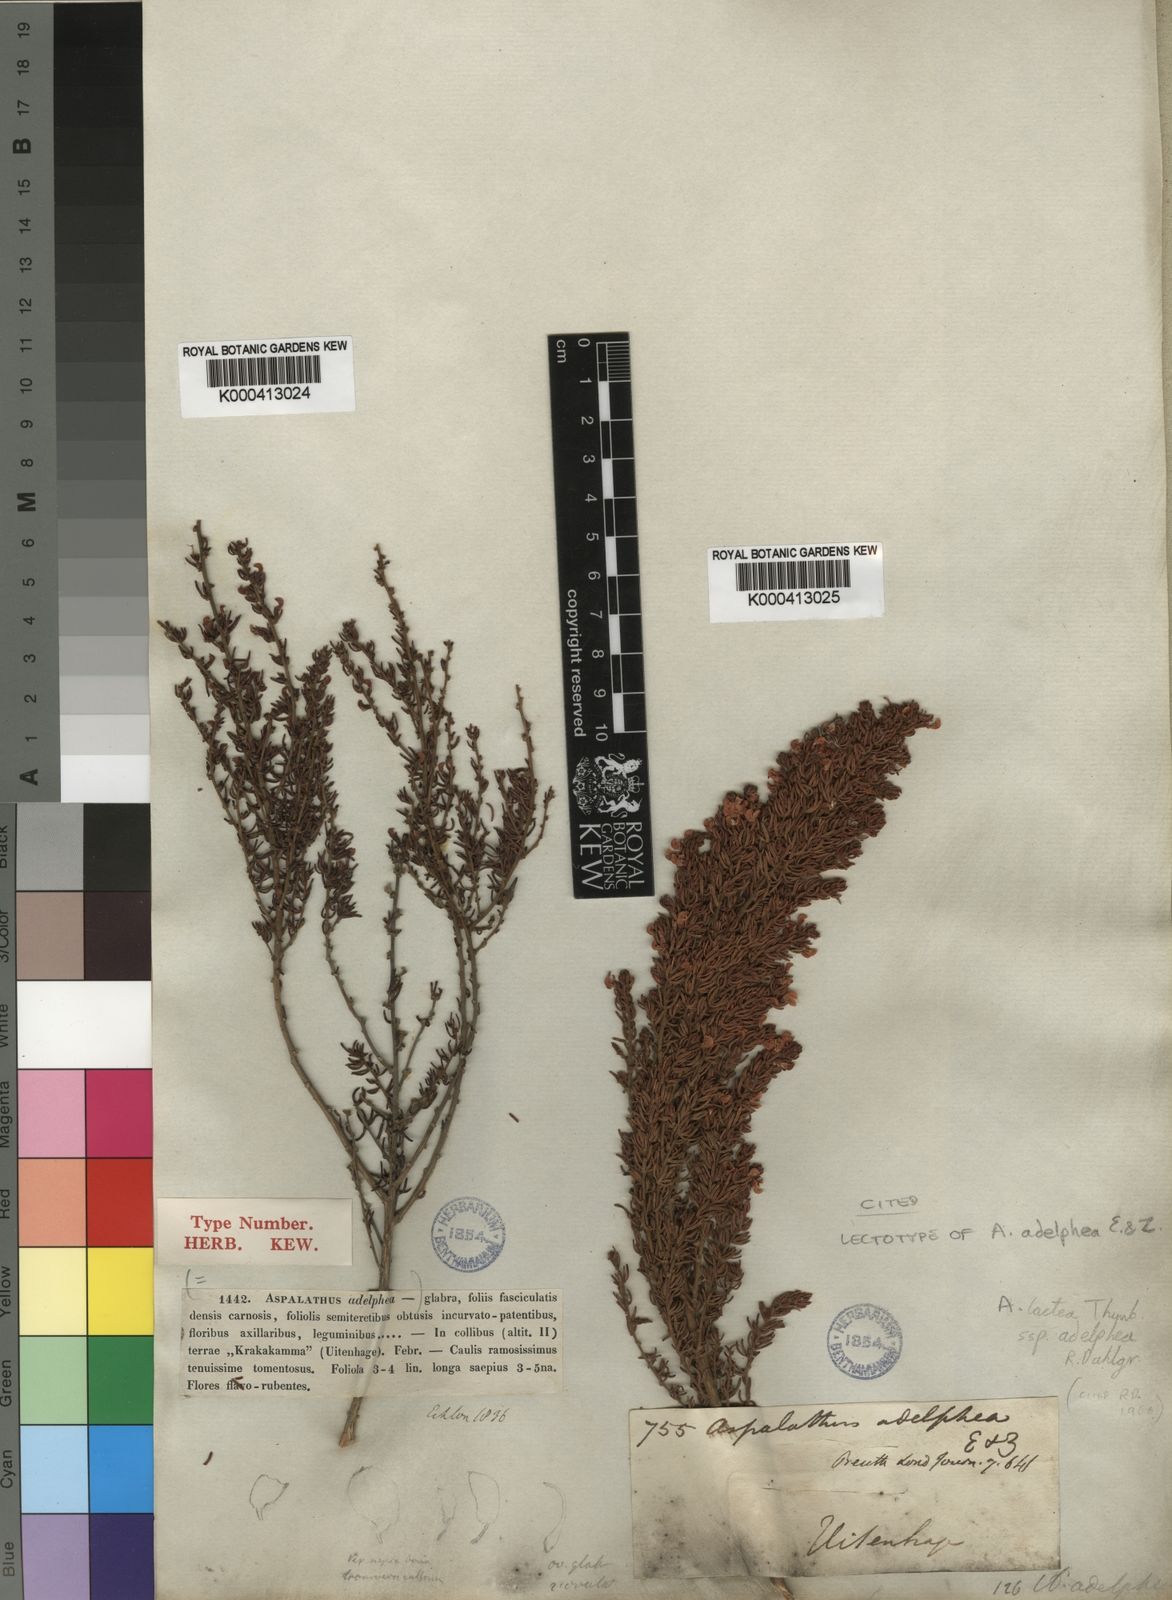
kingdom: Plantae
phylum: Tracheophyta
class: Magnoliopsida
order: Fabales
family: Fabaceae
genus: Aspalathus
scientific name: Aspalathus lactea
